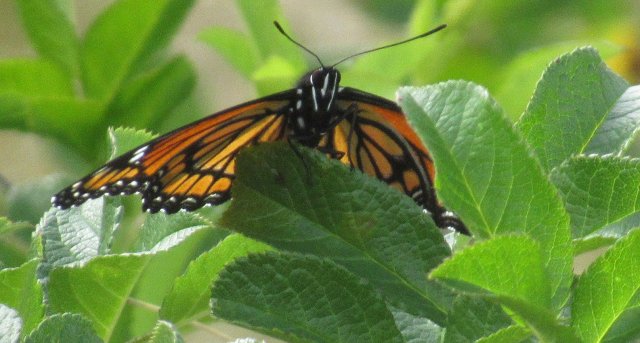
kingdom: Animalia
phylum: Arthropoda
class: Insecta
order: Lepidoptera
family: Nymphalidae
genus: Limenitis
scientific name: Limenitis archippus
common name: Viceroy
